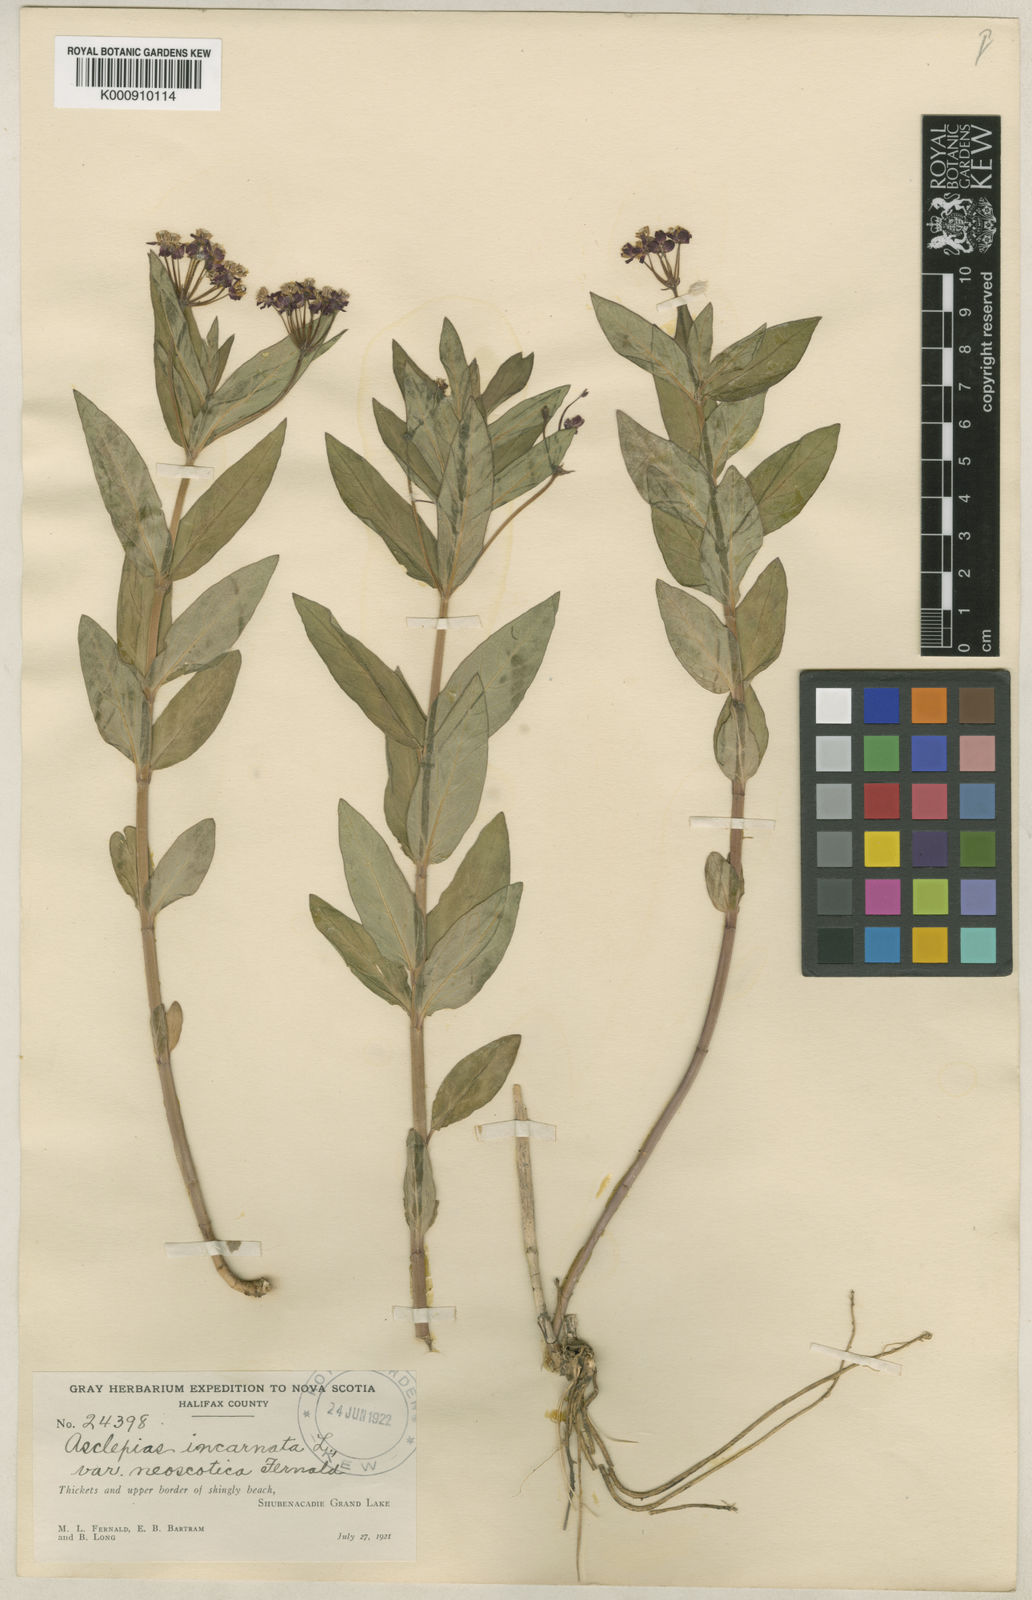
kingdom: Plantae
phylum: Tracheophyta
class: Magnoliopsida
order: Gentianales
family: Apocynaceae
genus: Asclepias
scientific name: Asclepias incarnata
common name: Swamp milkweed
